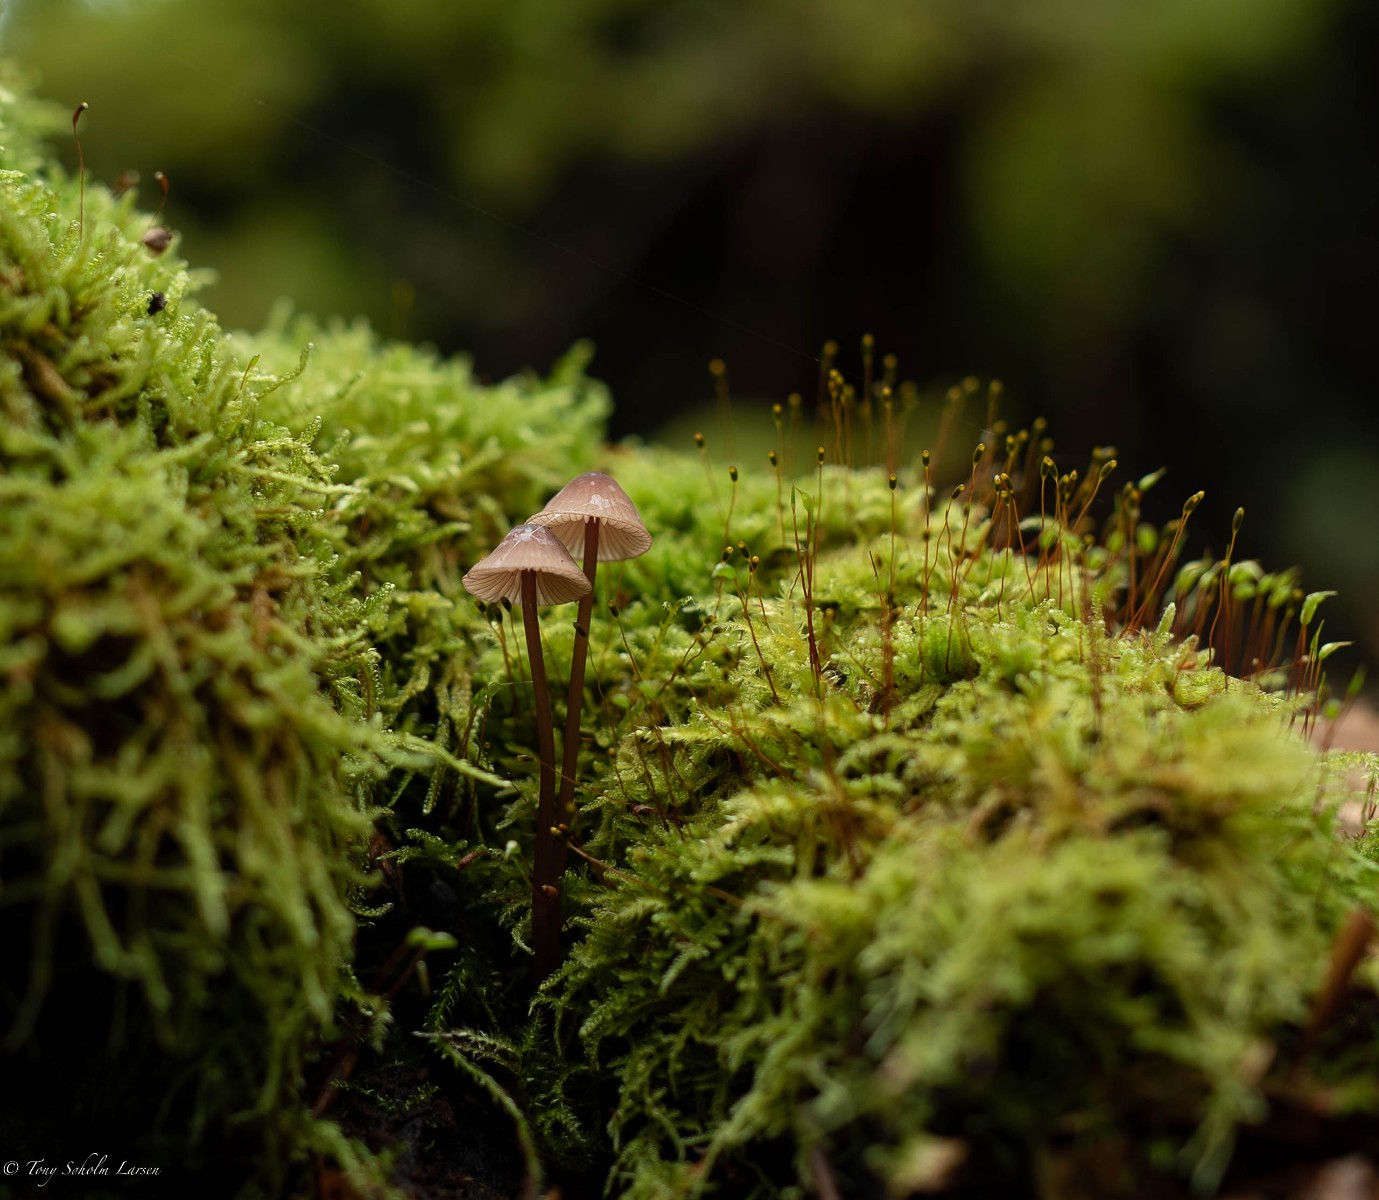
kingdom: Fungi
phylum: Basidiomycota
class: Agaricomycetes
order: Agaricales
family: Mycenaceae
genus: Mycena
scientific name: Mycena sanguinolenta
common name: rødmælket huesvamp
